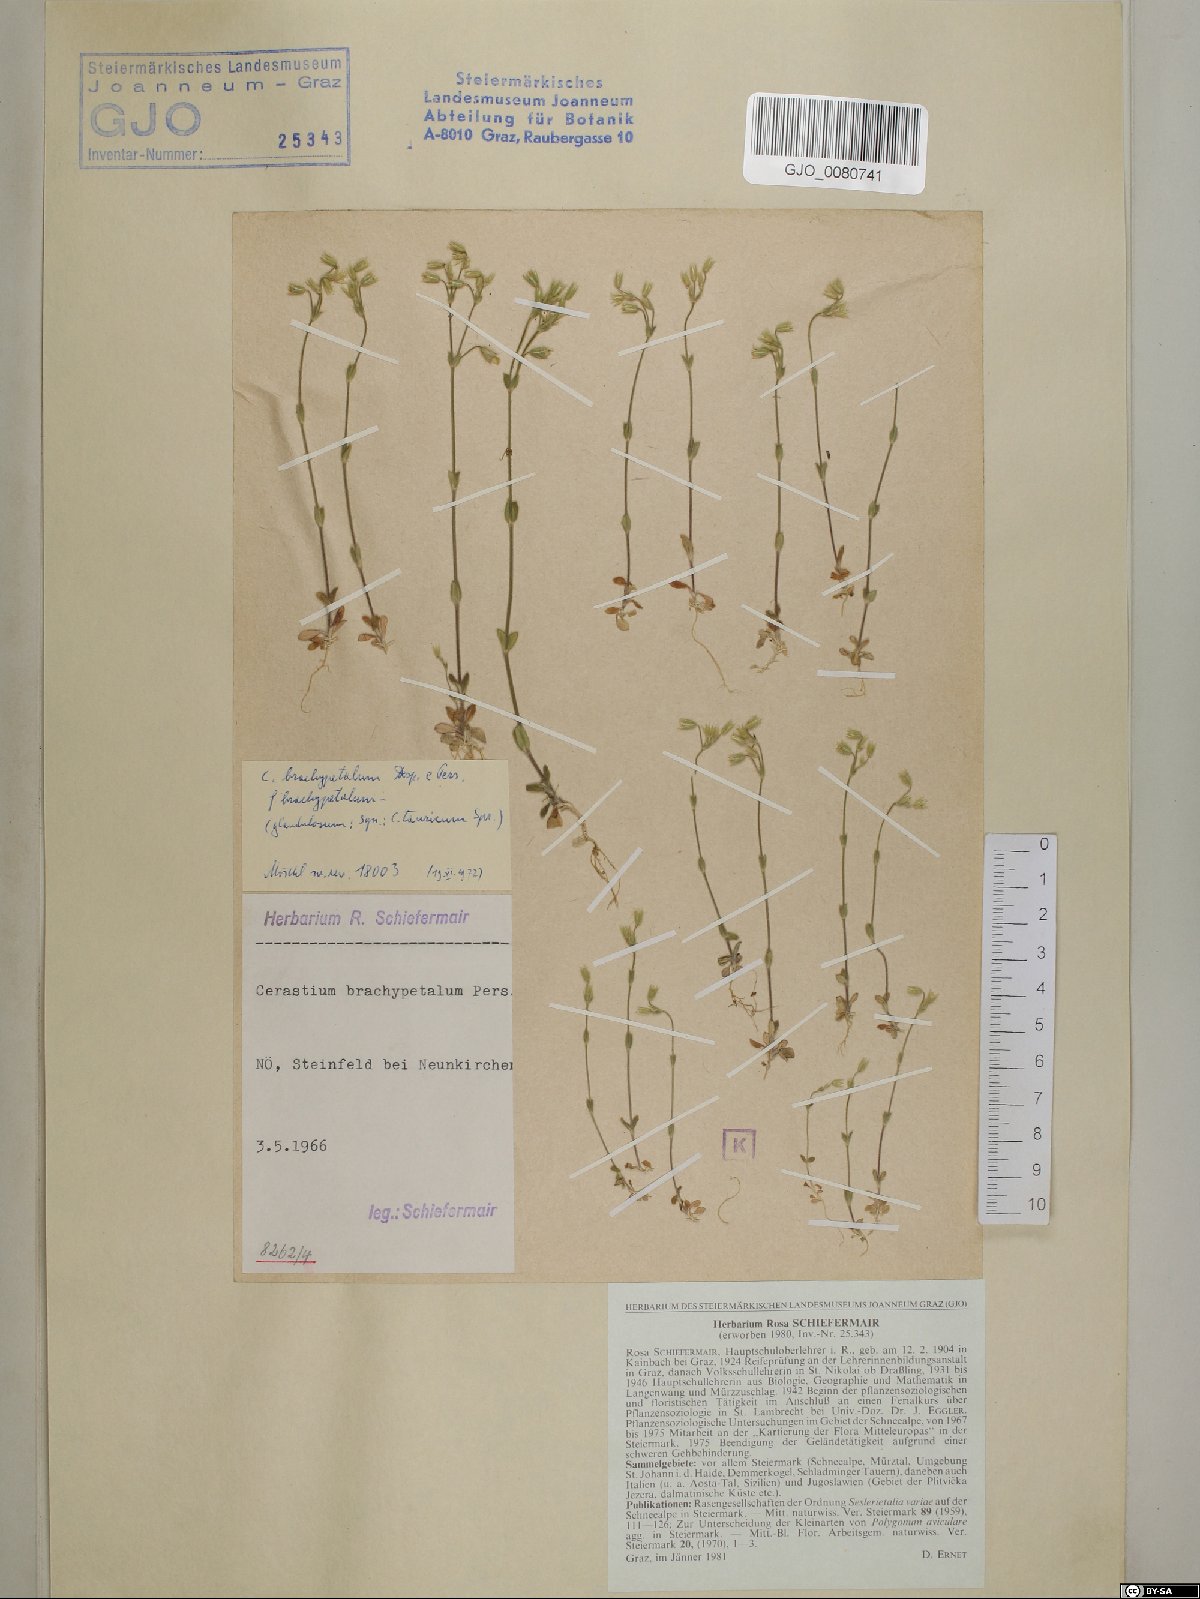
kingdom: Plantae
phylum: Tracheophyta
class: Magnoliopsida
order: Caryophyllales
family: Caryophyllaceae
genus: Cerastium
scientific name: Cerastium brachypetalum
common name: Grey mouse-ear
